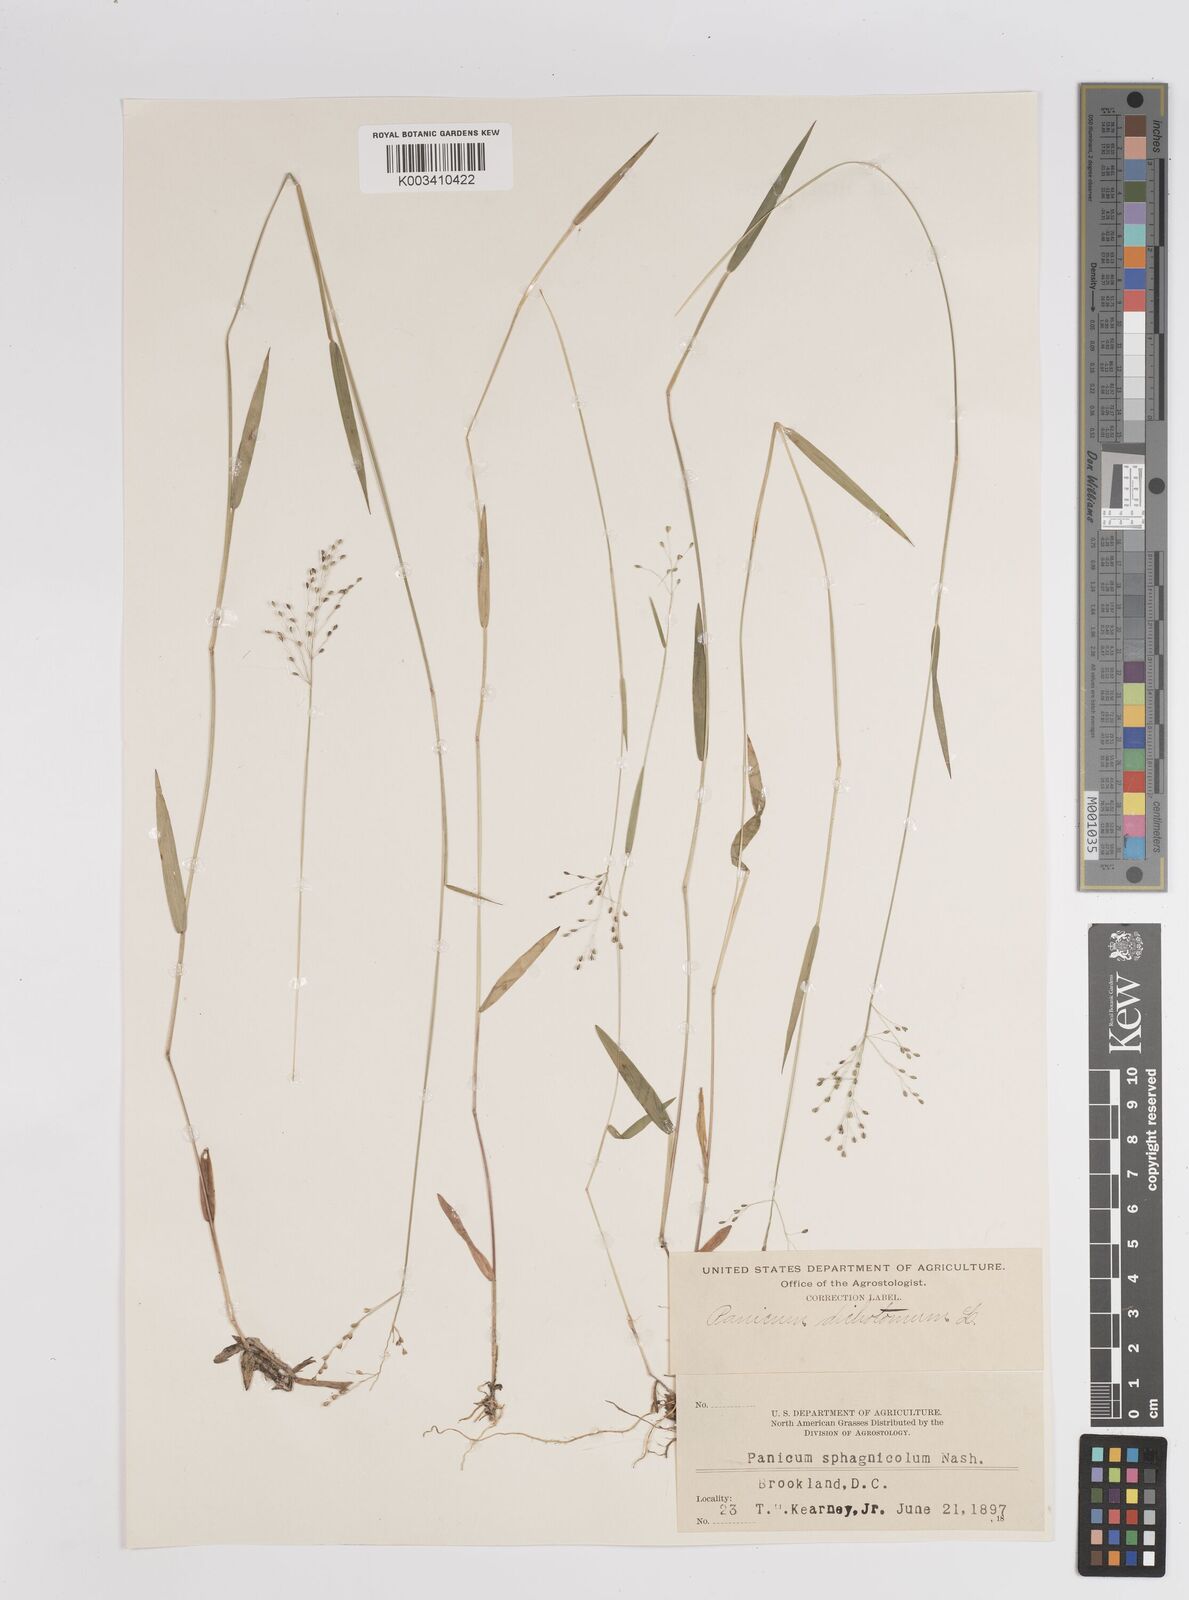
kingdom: Plantae
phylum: Tracheophyta
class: Liliopsida
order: Poales
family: Poaceae
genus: Dichanthelium
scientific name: Dichanthelium dichotomum
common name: Cypress panicgrass
